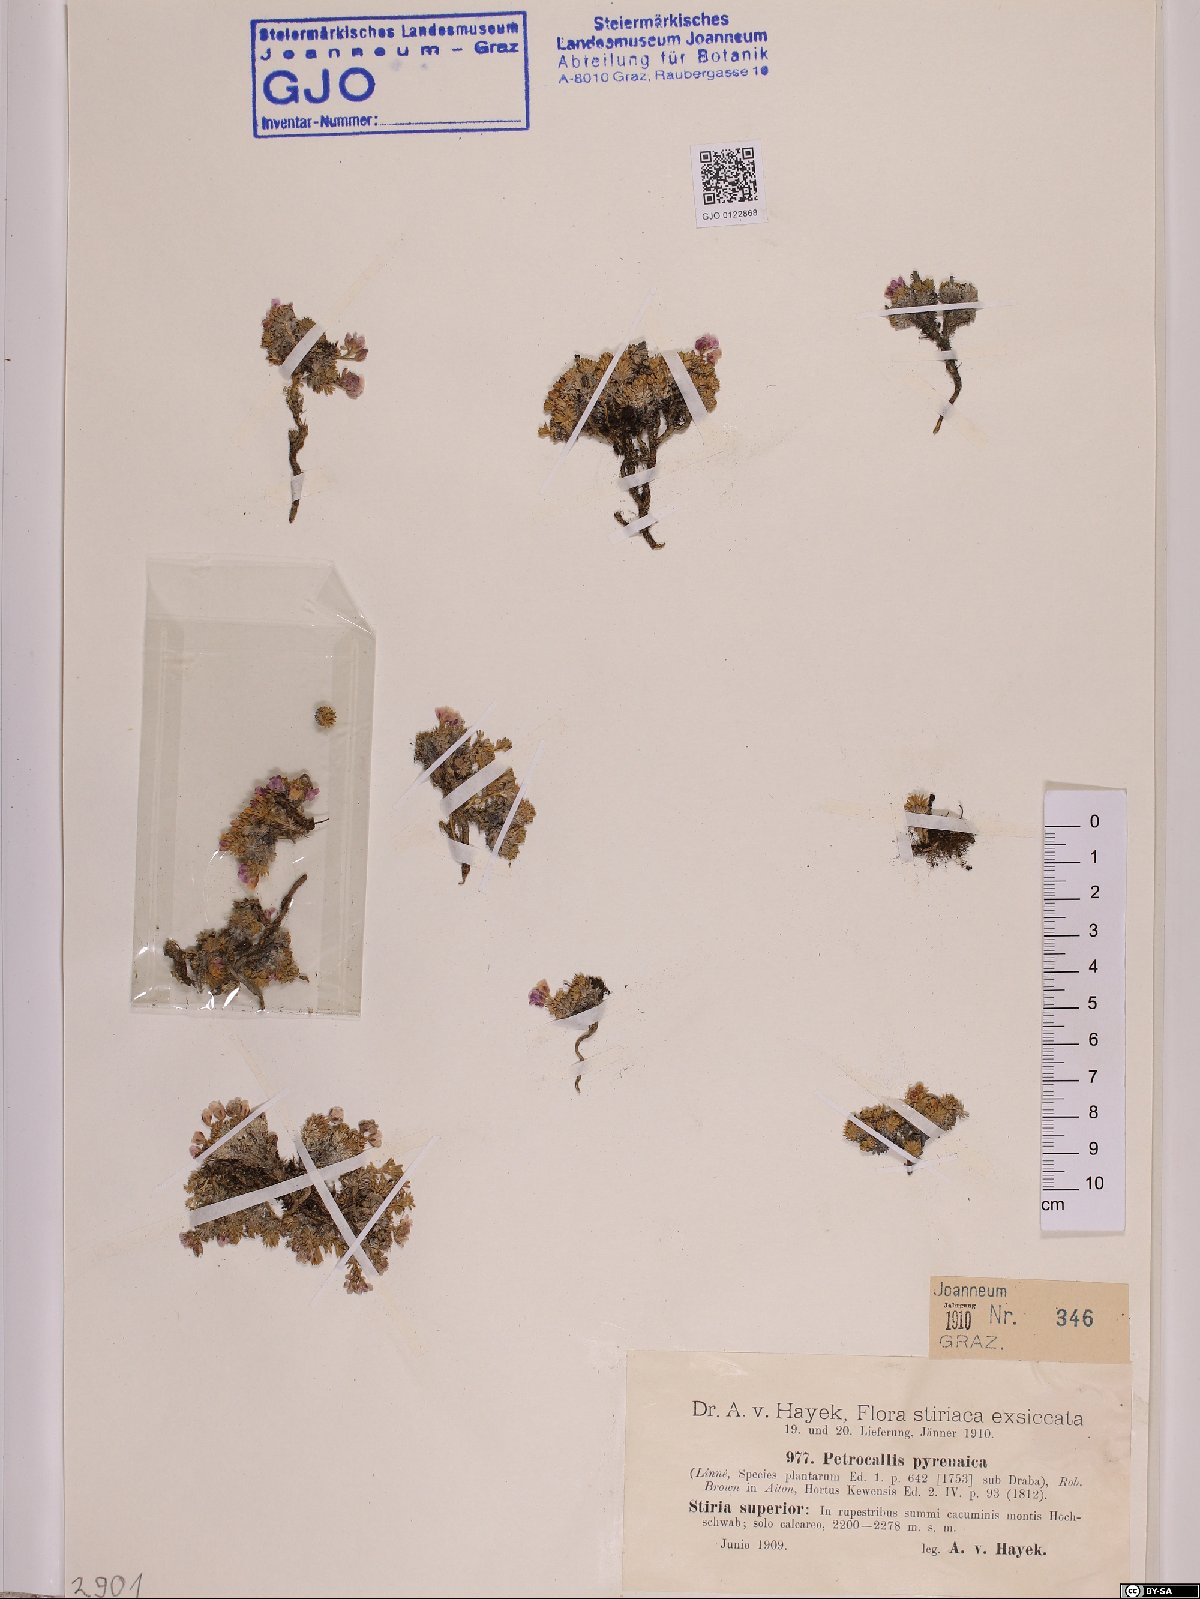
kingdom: Plantae
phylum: Tracheophyta
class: Magnoliopsida
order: Brassicales
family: Brassicaceae
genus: Petrocallis
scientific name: Petrocallis pyrenaica
